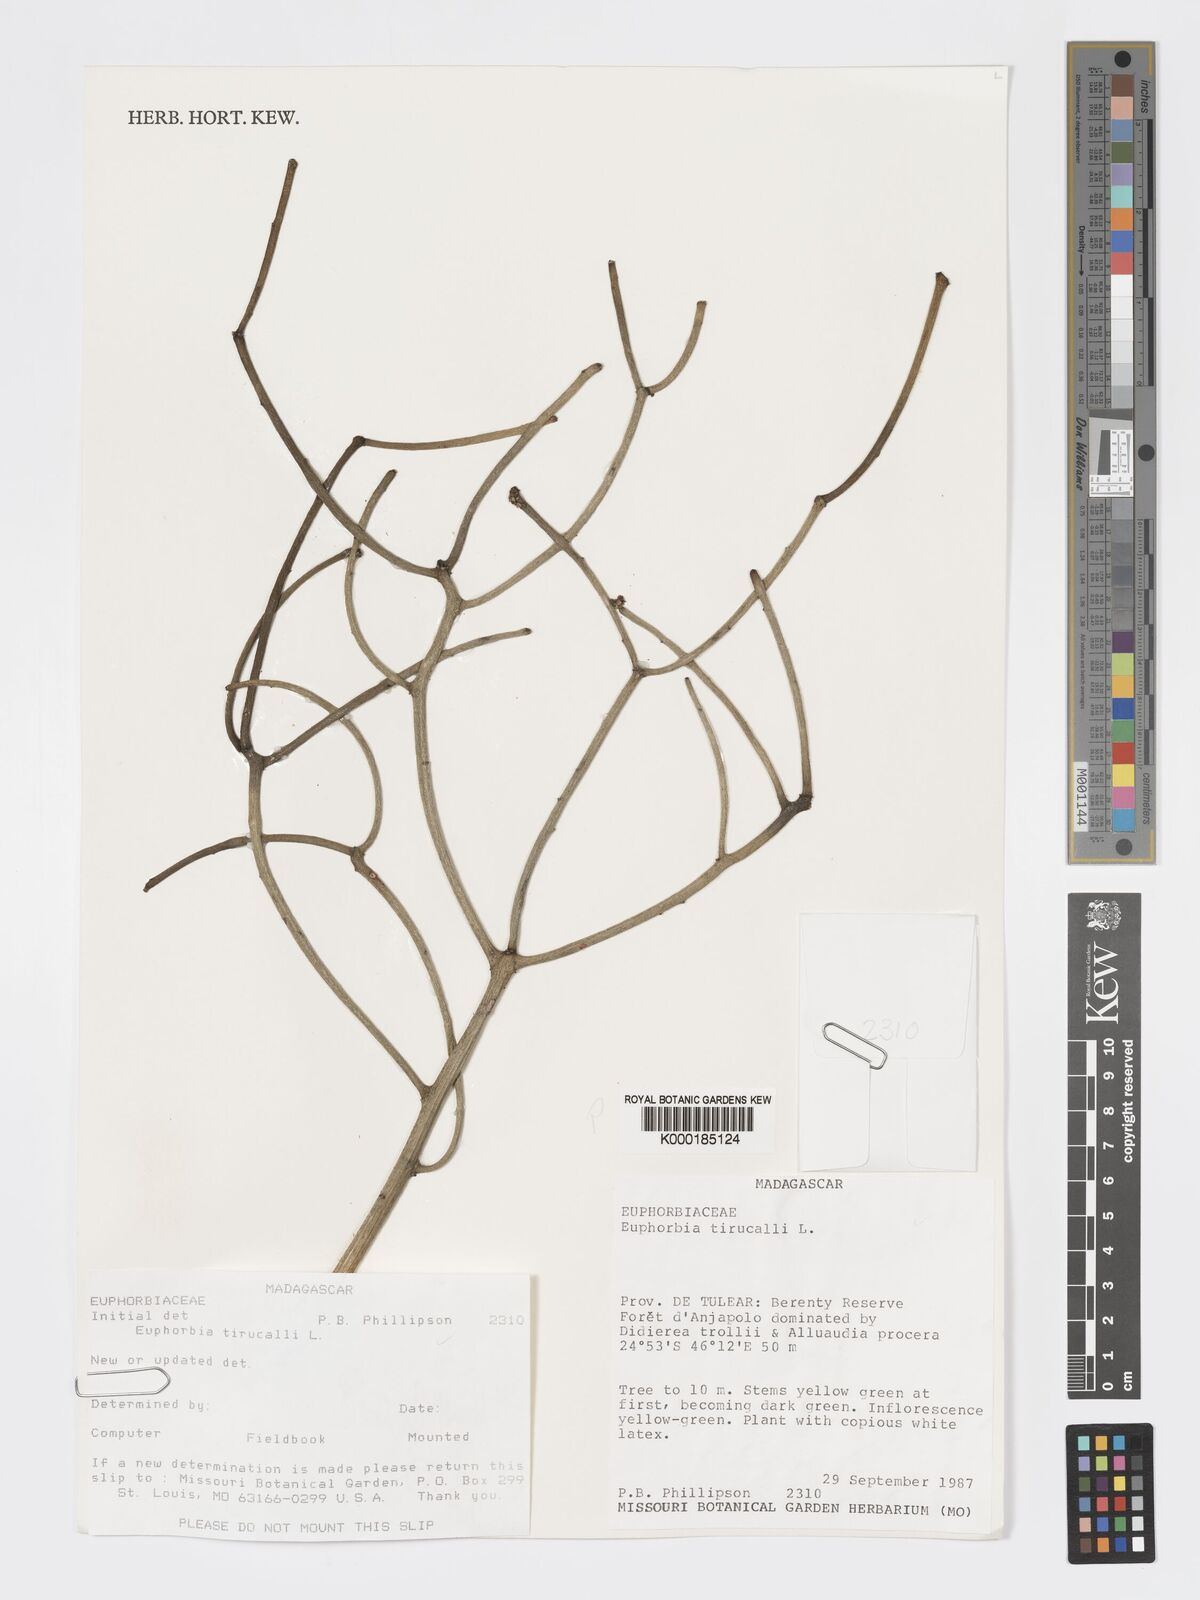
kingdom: Plantae
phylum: Tracheophyta
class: Magnoliopsida
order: Malpighiales
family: Euphorbiaceae
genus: Euphorbia
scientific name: Euphorbia tirucalli
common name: Indiantree spurge
